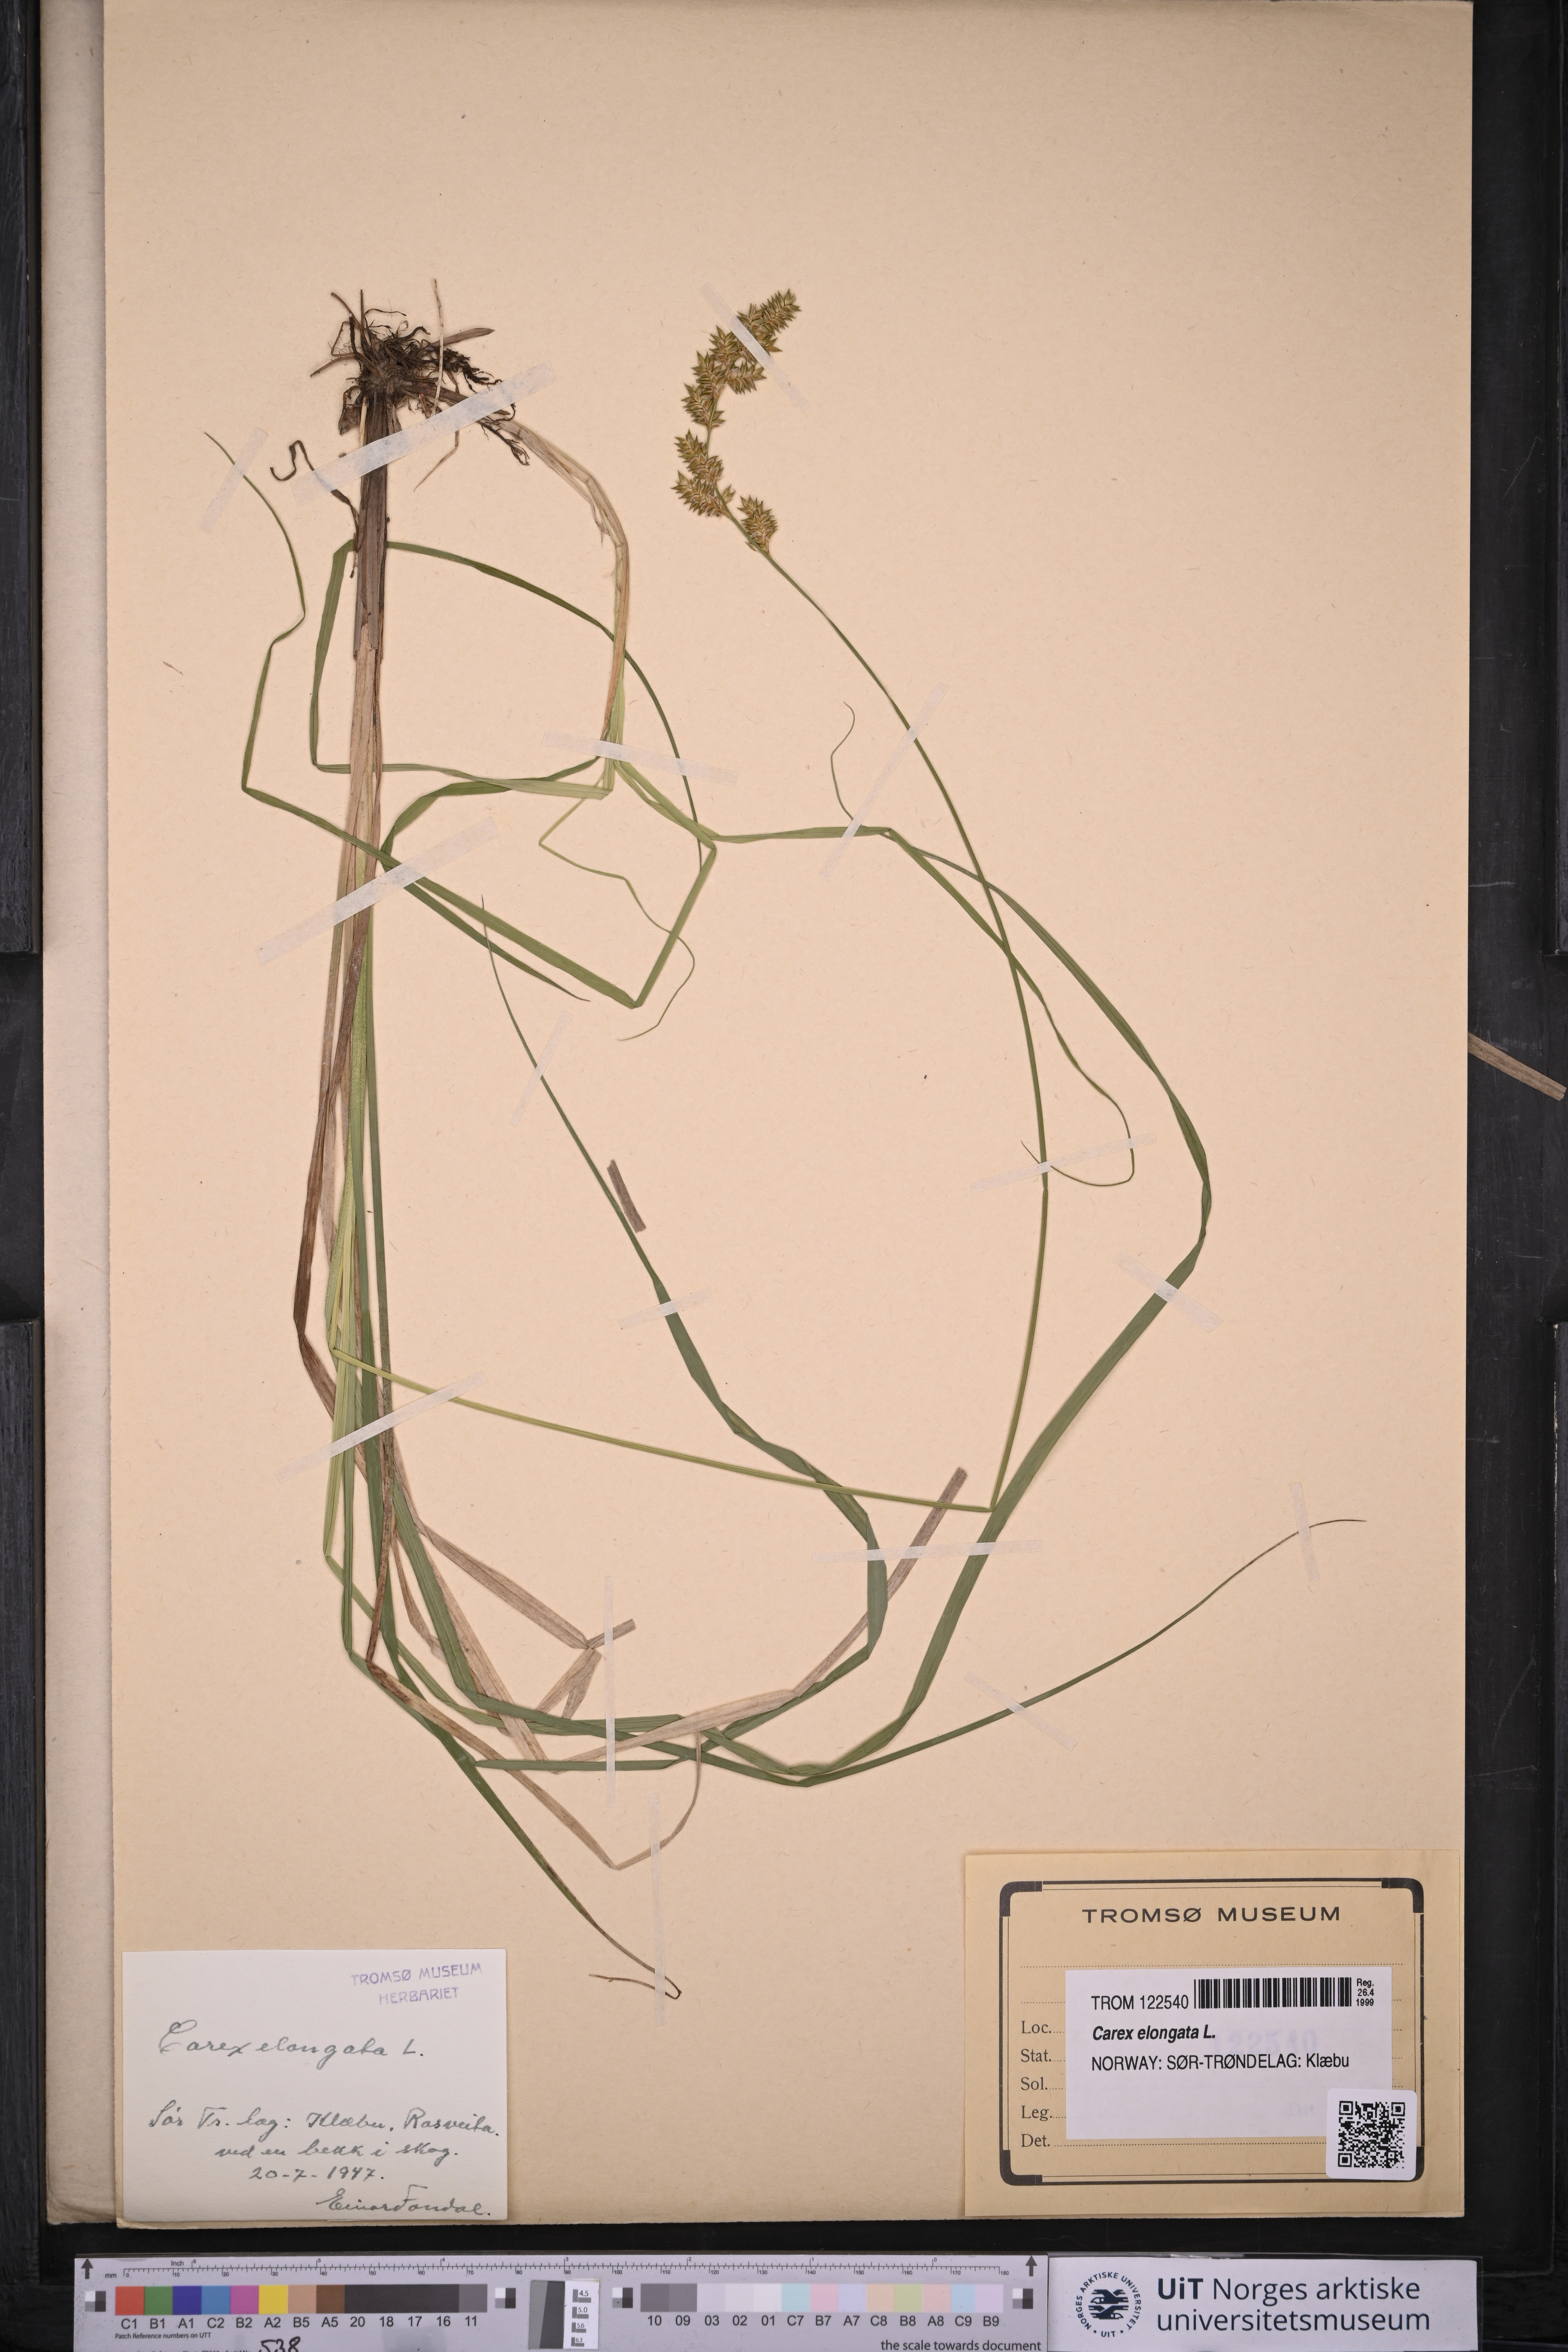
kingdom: Plantae
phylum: Tracheophyta
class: Liliopsida
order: Poales
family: Cyperaceae
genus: Carex
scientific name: Carex elongata
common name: Elongated sedge
